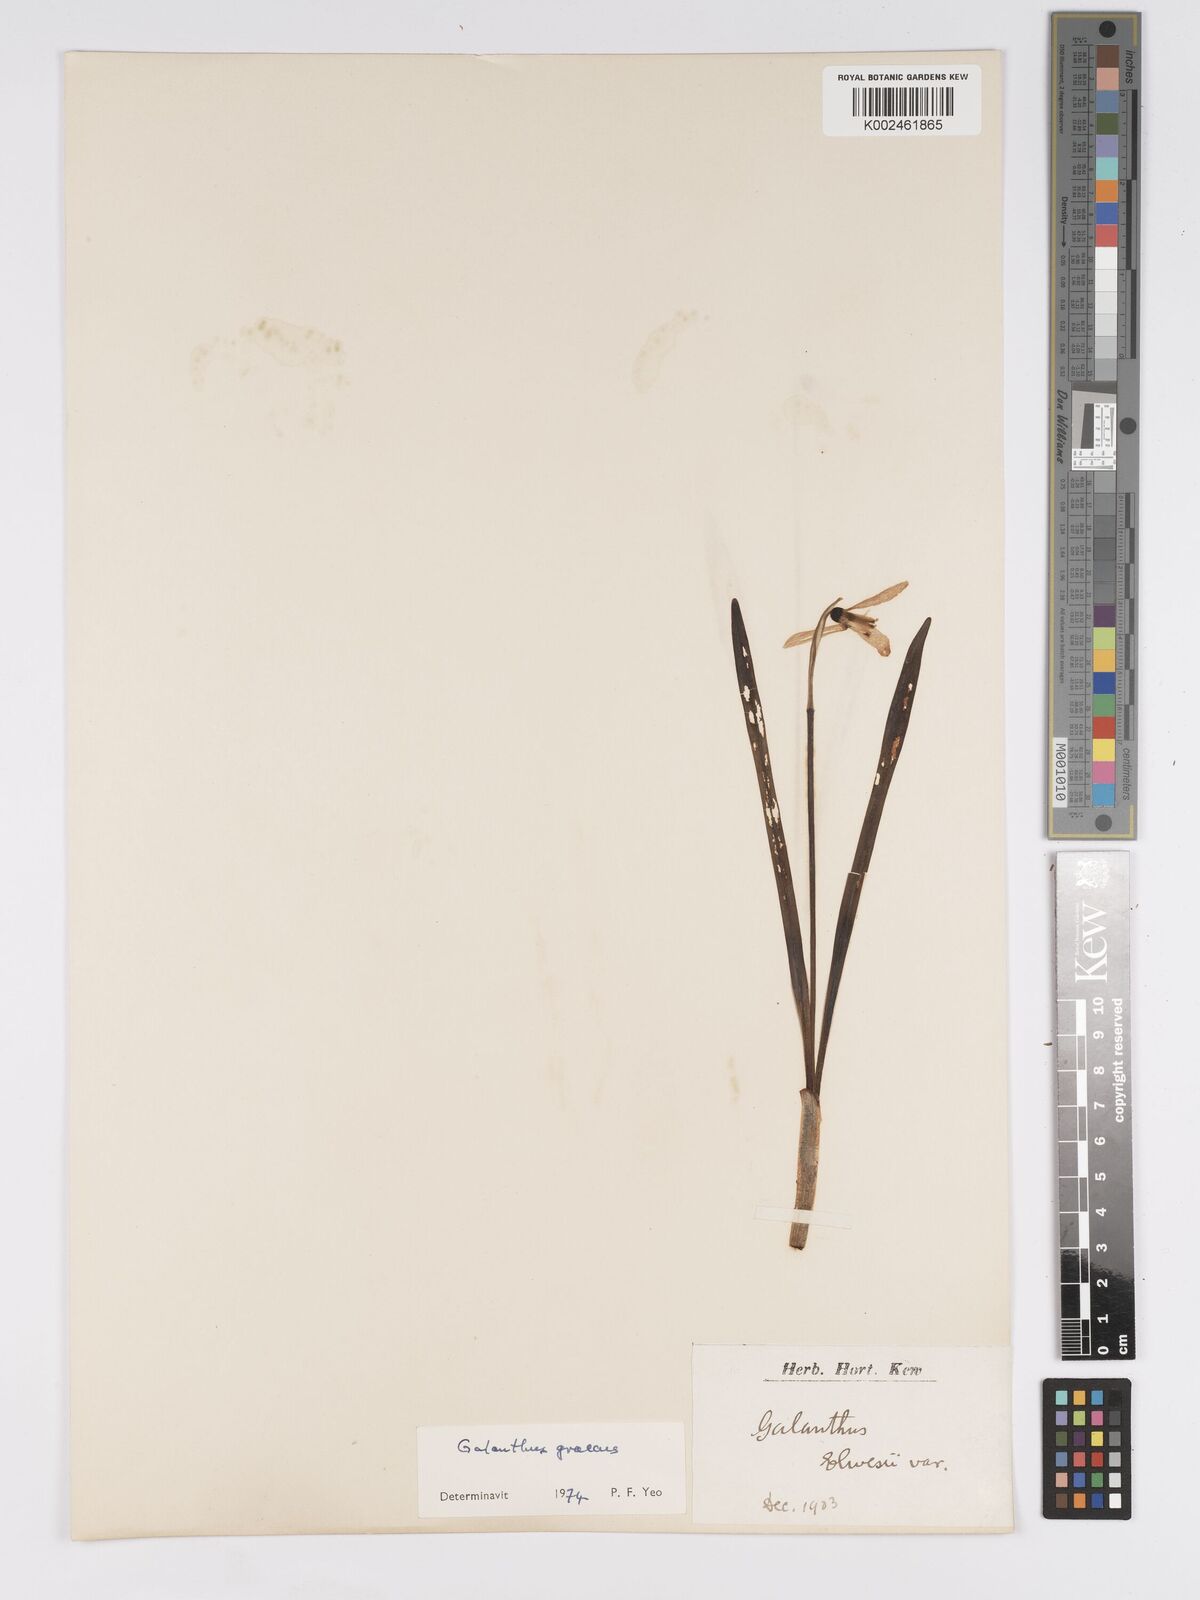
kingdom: Plantae
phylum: Tracheophyta
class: Liliopsida
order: Asparagales
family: Amaryllidaceae
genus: Galanthus
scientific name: Galanthus elwesii
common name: Greater snowdrop
